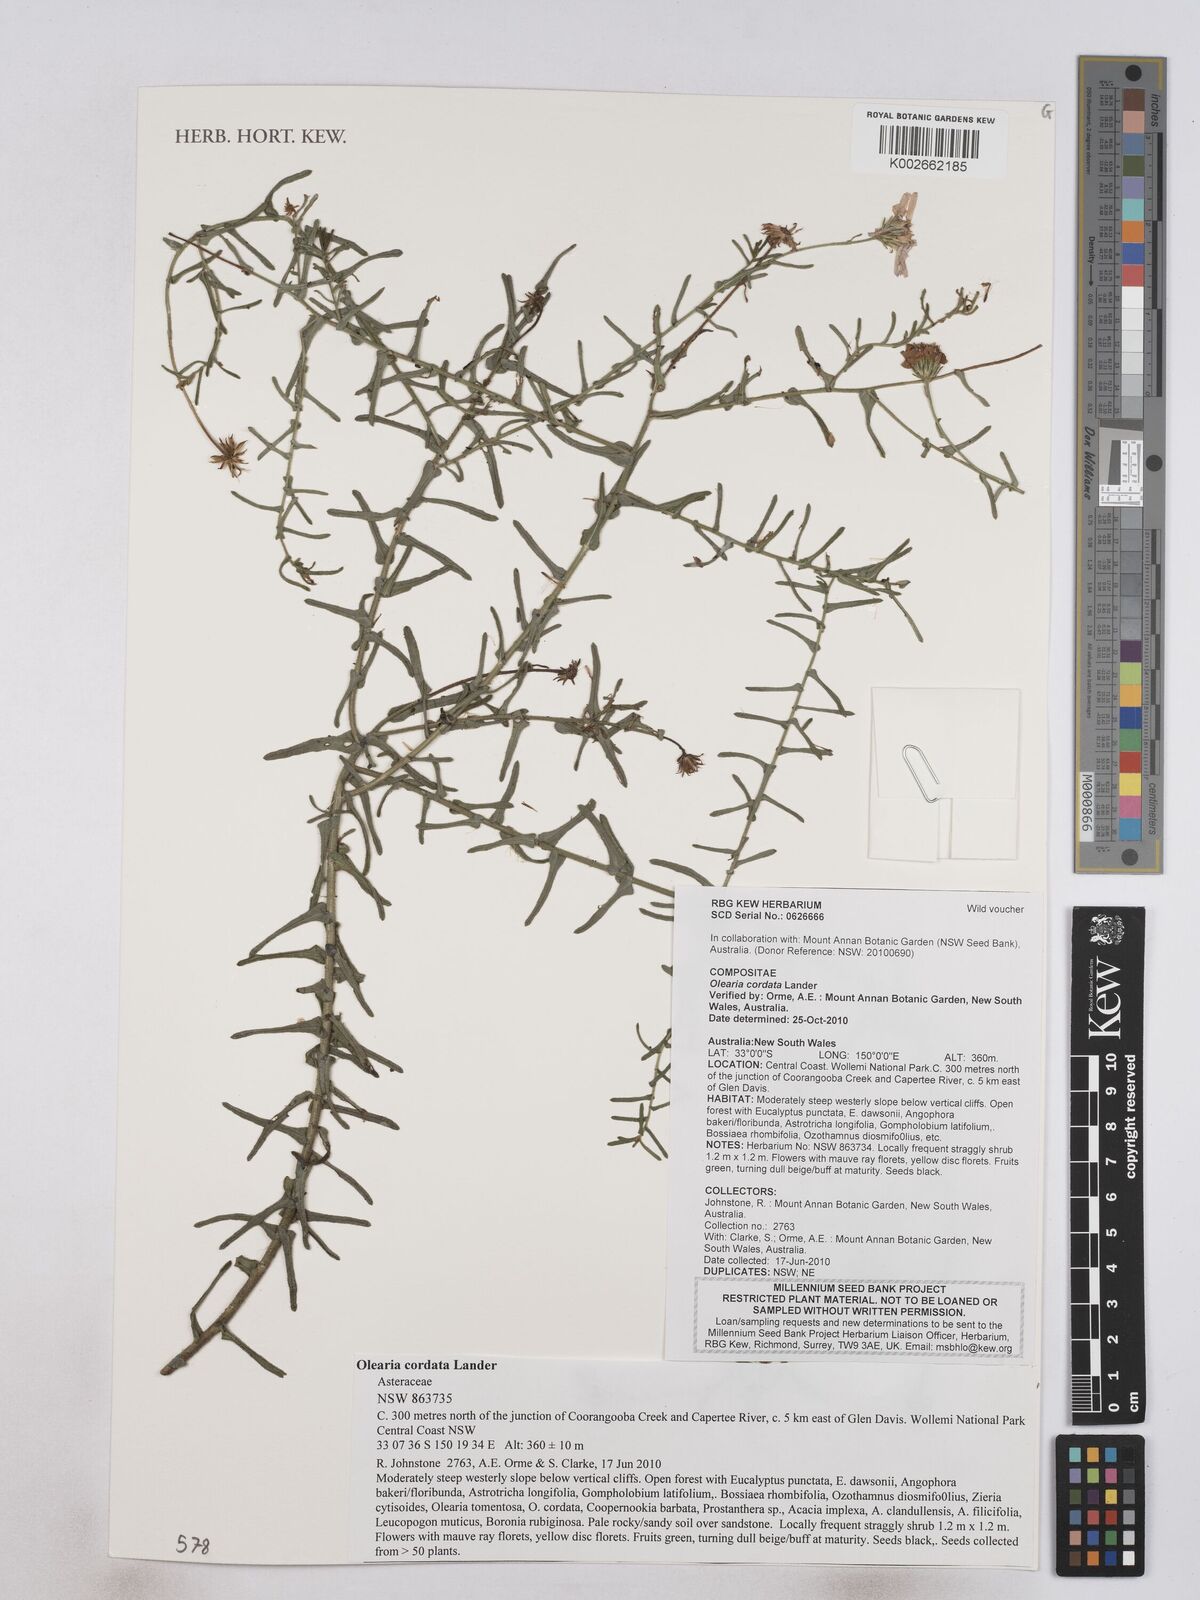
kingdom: Plantae
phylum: Tracheophyta
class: Magnoliopsida
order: Asterales
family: Asteraceae
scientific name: Asteraceae
